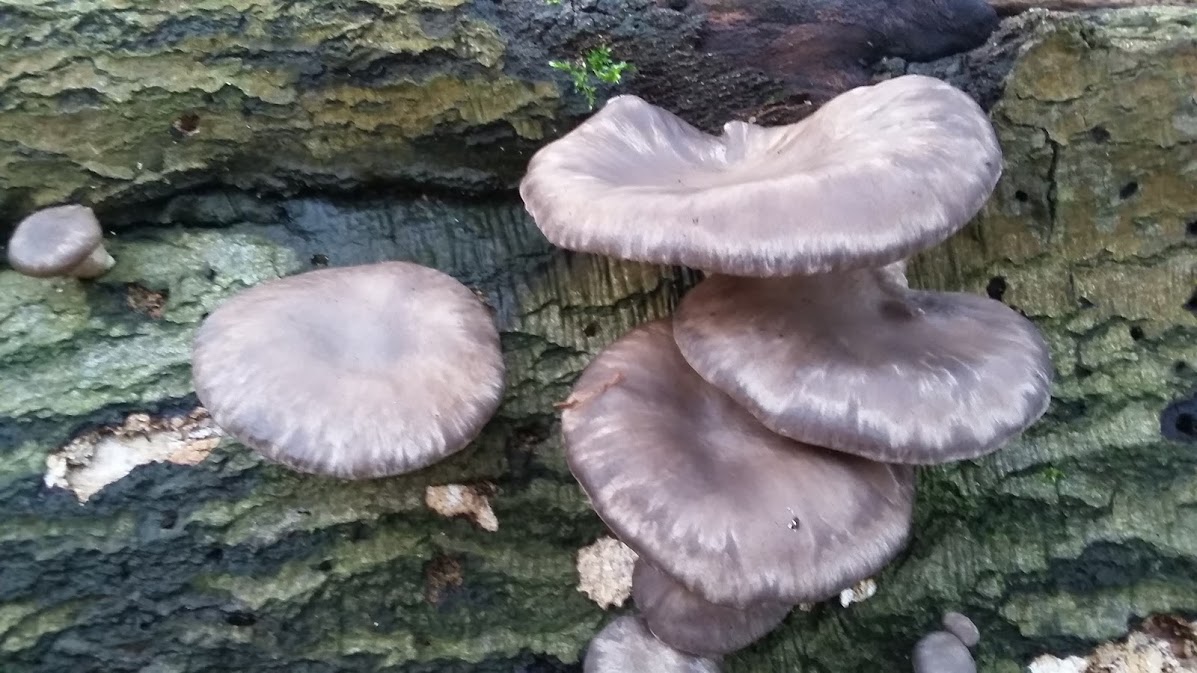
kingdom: Fungi
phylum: Basidiomycota
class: Agaricomycetes
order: Agaricales
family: Pleurotaceae
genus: Pleurotus
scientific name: Pleurotus ostreatus
